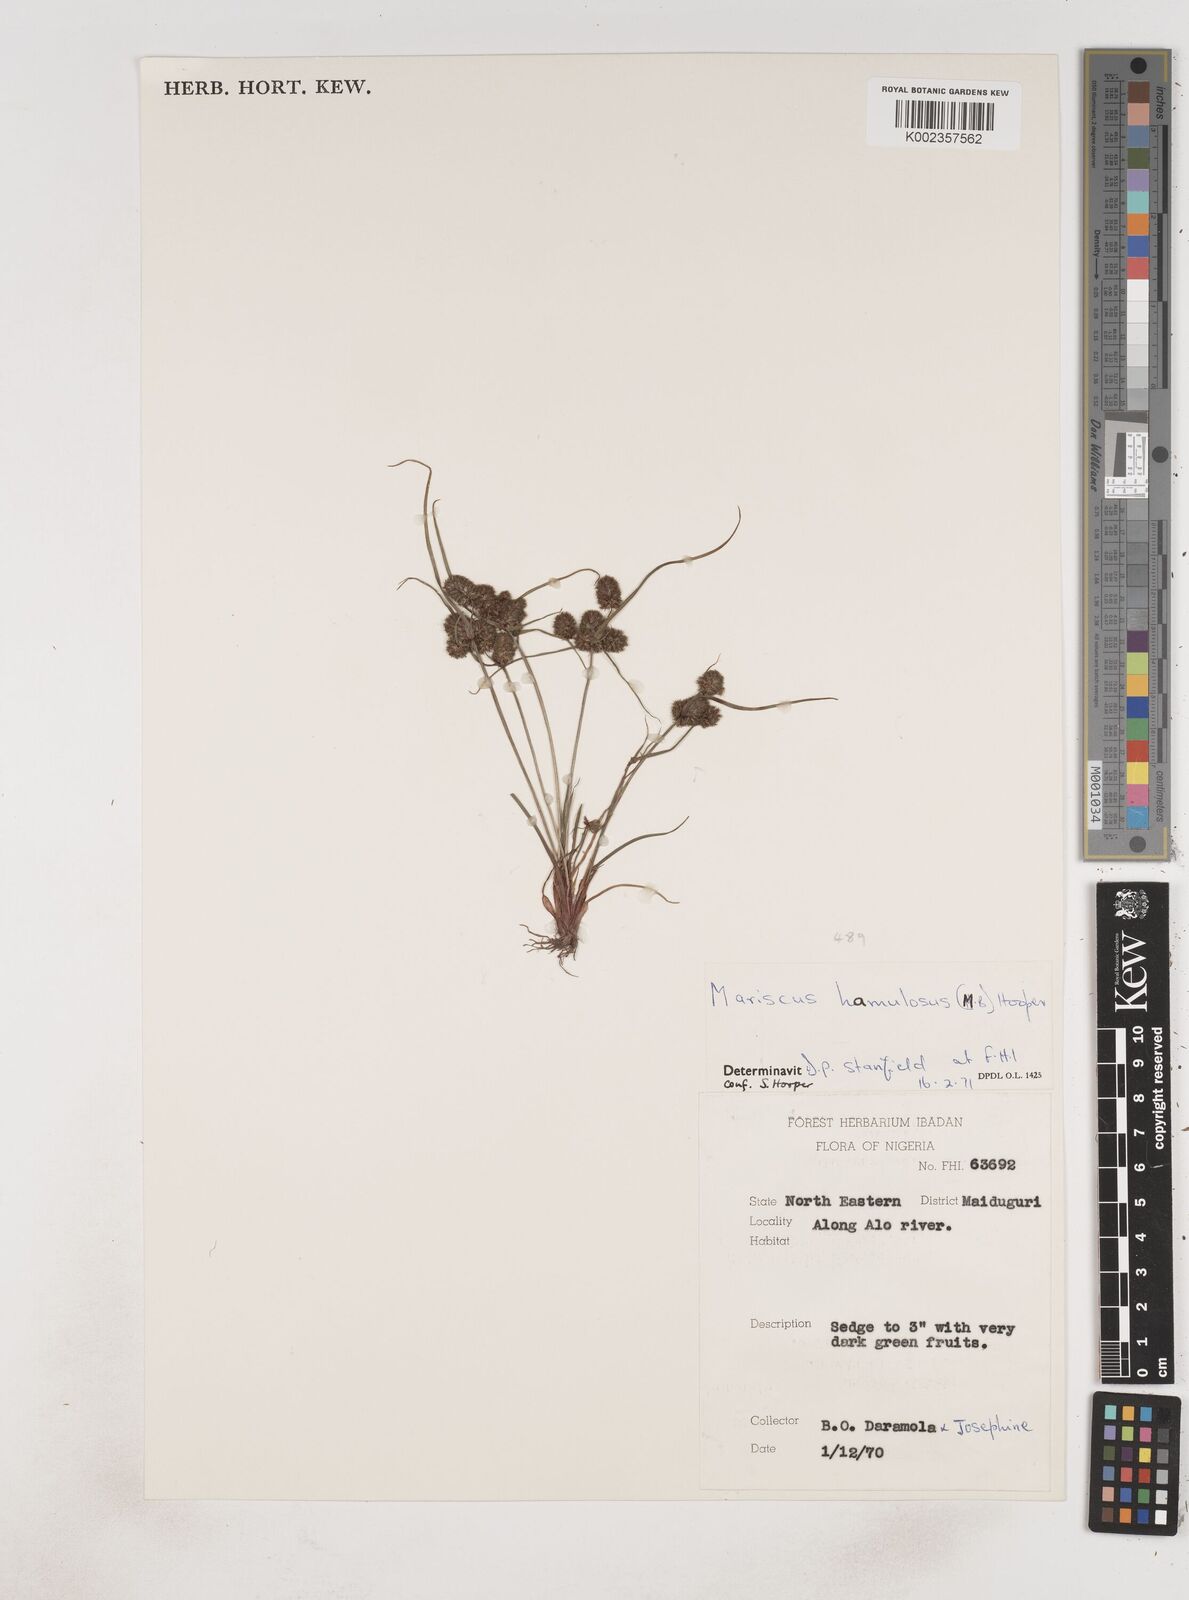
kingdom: Plantae
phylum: Tracheophyta
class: Liliopsida
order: Poales
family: Cyperaceae
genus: Cyperus
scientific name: Cyperus hamulosus
